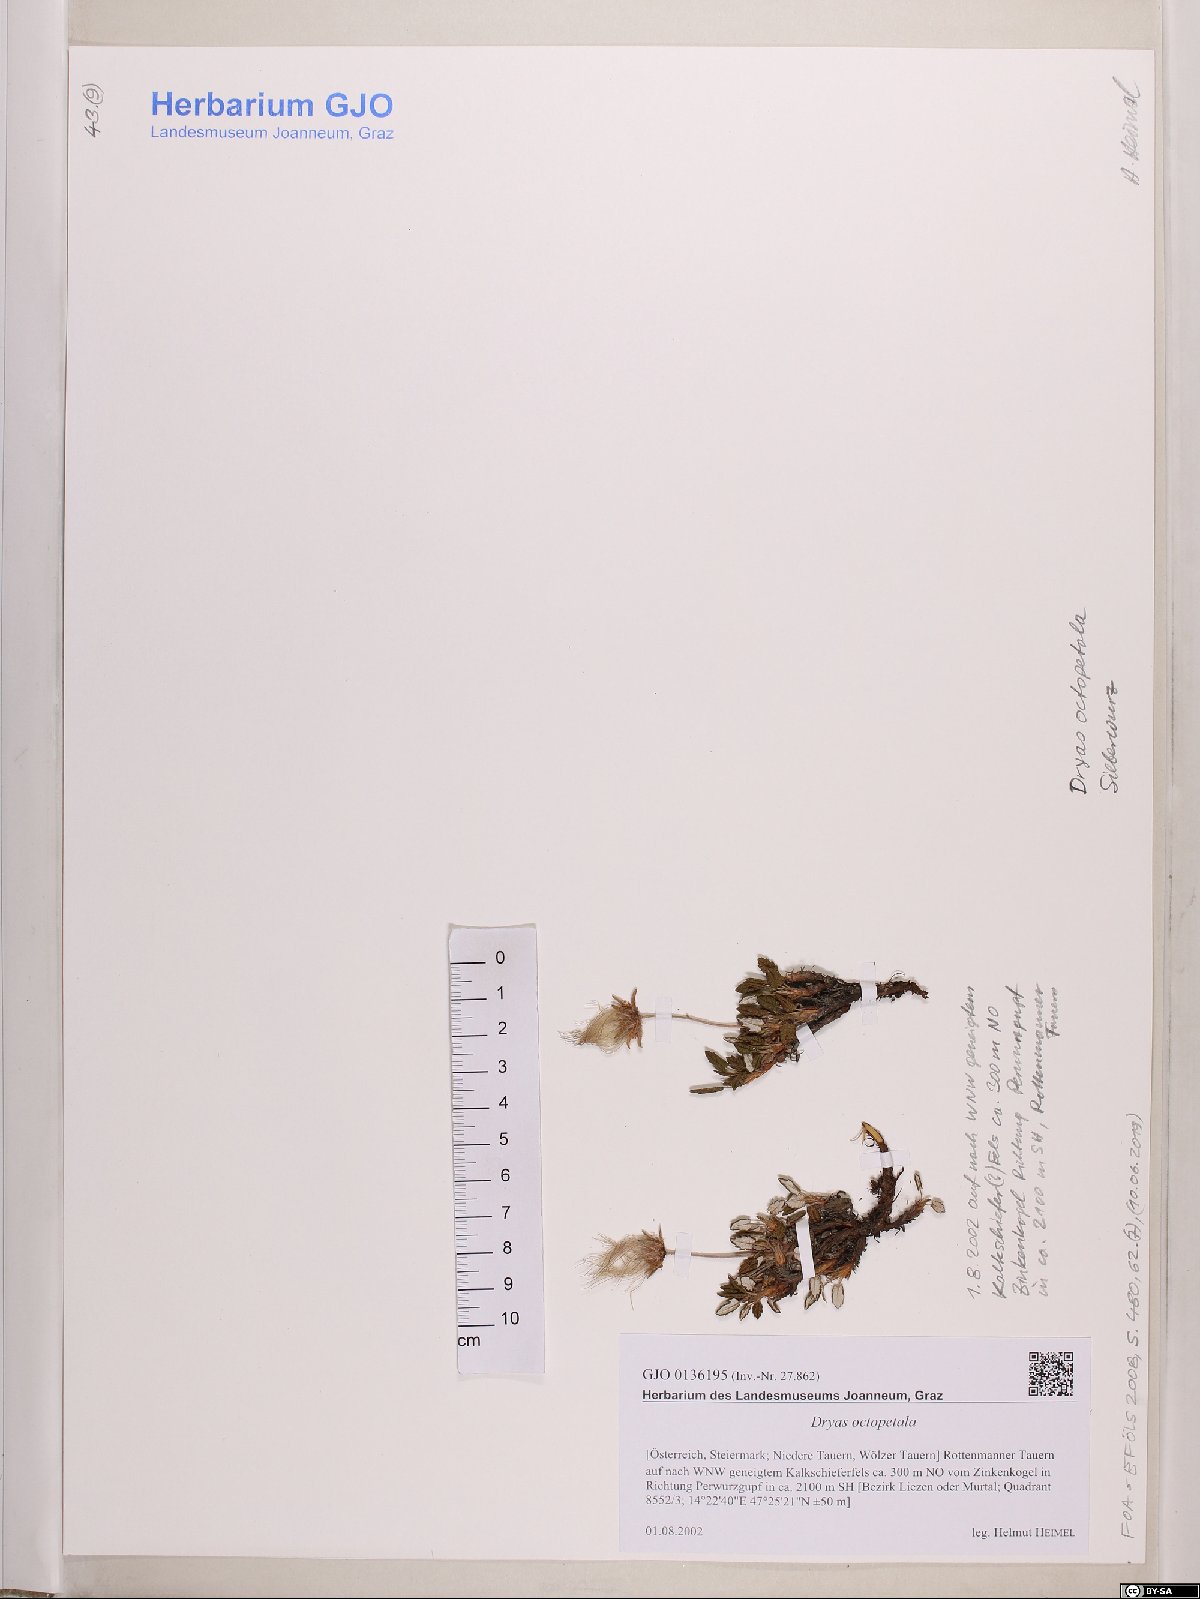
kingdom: Plantae
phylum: Tracheophyta
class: Magnoliopsida
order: Rosales
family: Rosaceae
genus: Dryas
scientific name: Dryas octopetala
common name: Eight-petal mountain-avens
